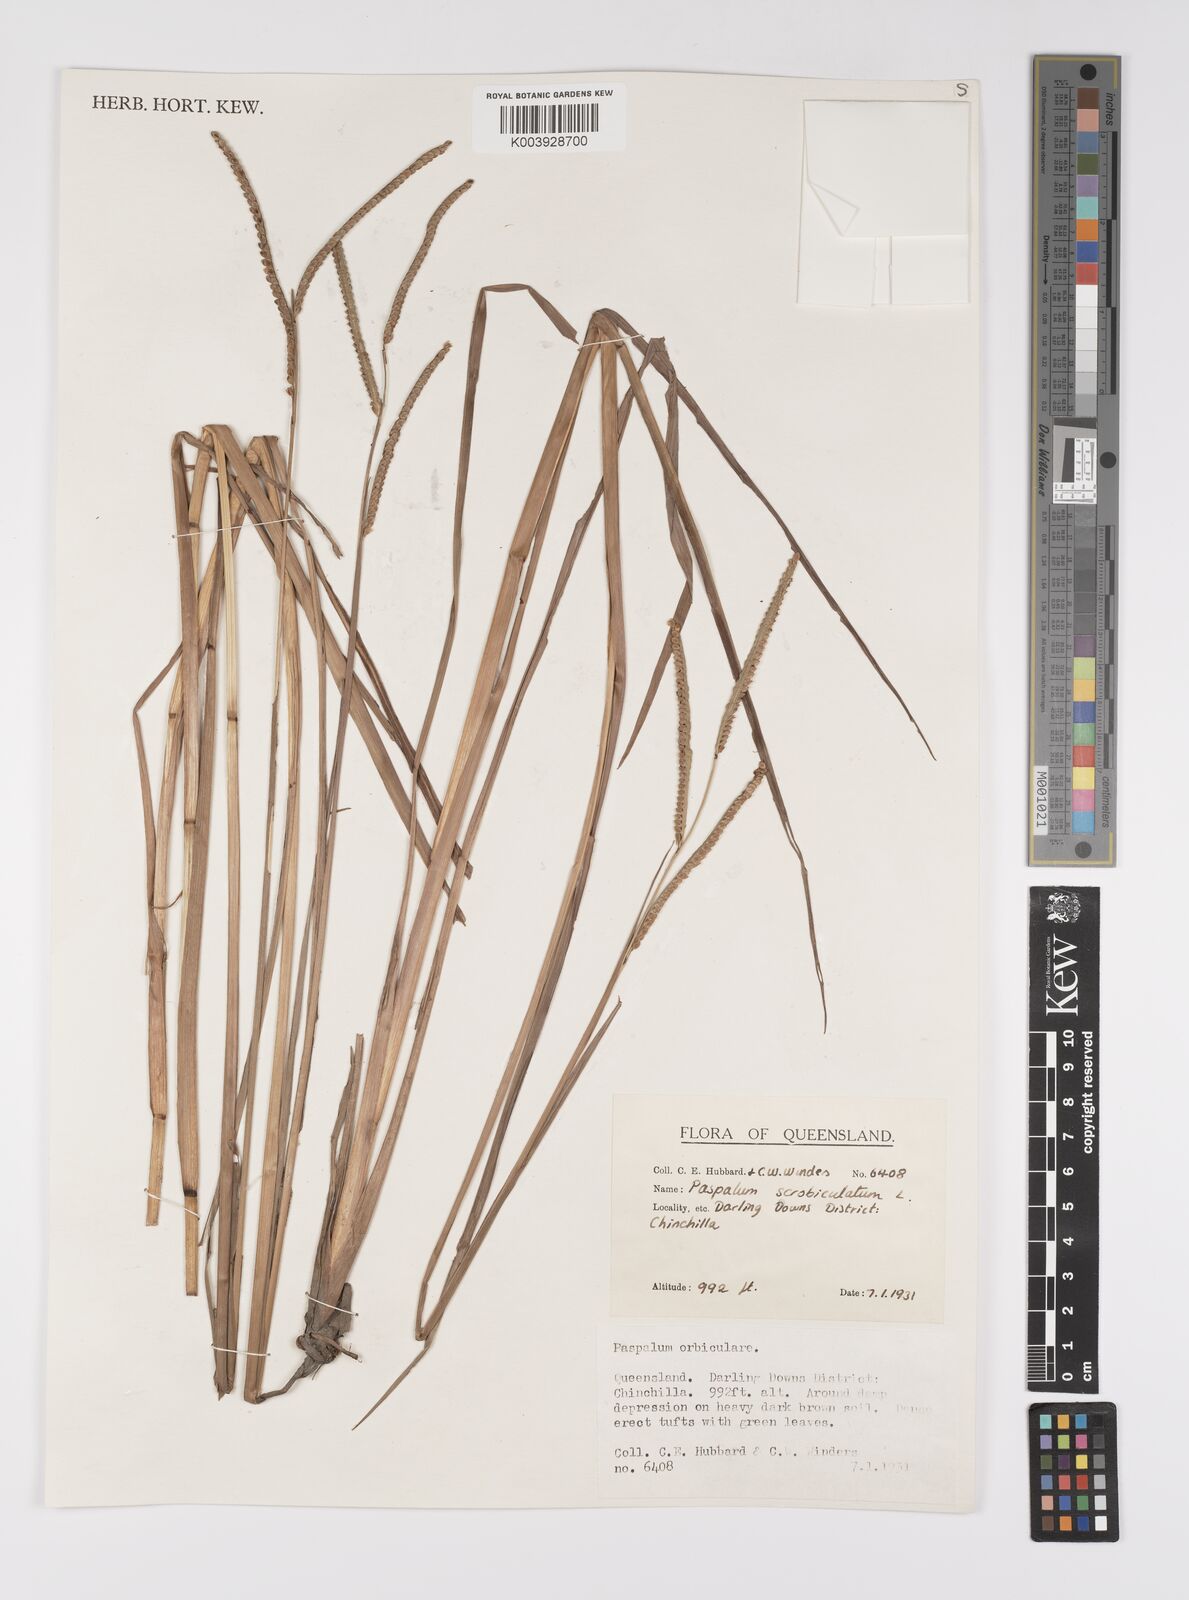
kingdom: Plantae
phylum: Tracheophyta
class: Liliopsida
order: Poales
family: Poaceae
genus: Paspalum
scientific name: Paspalum scrobiculatum
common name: Kodo millet
